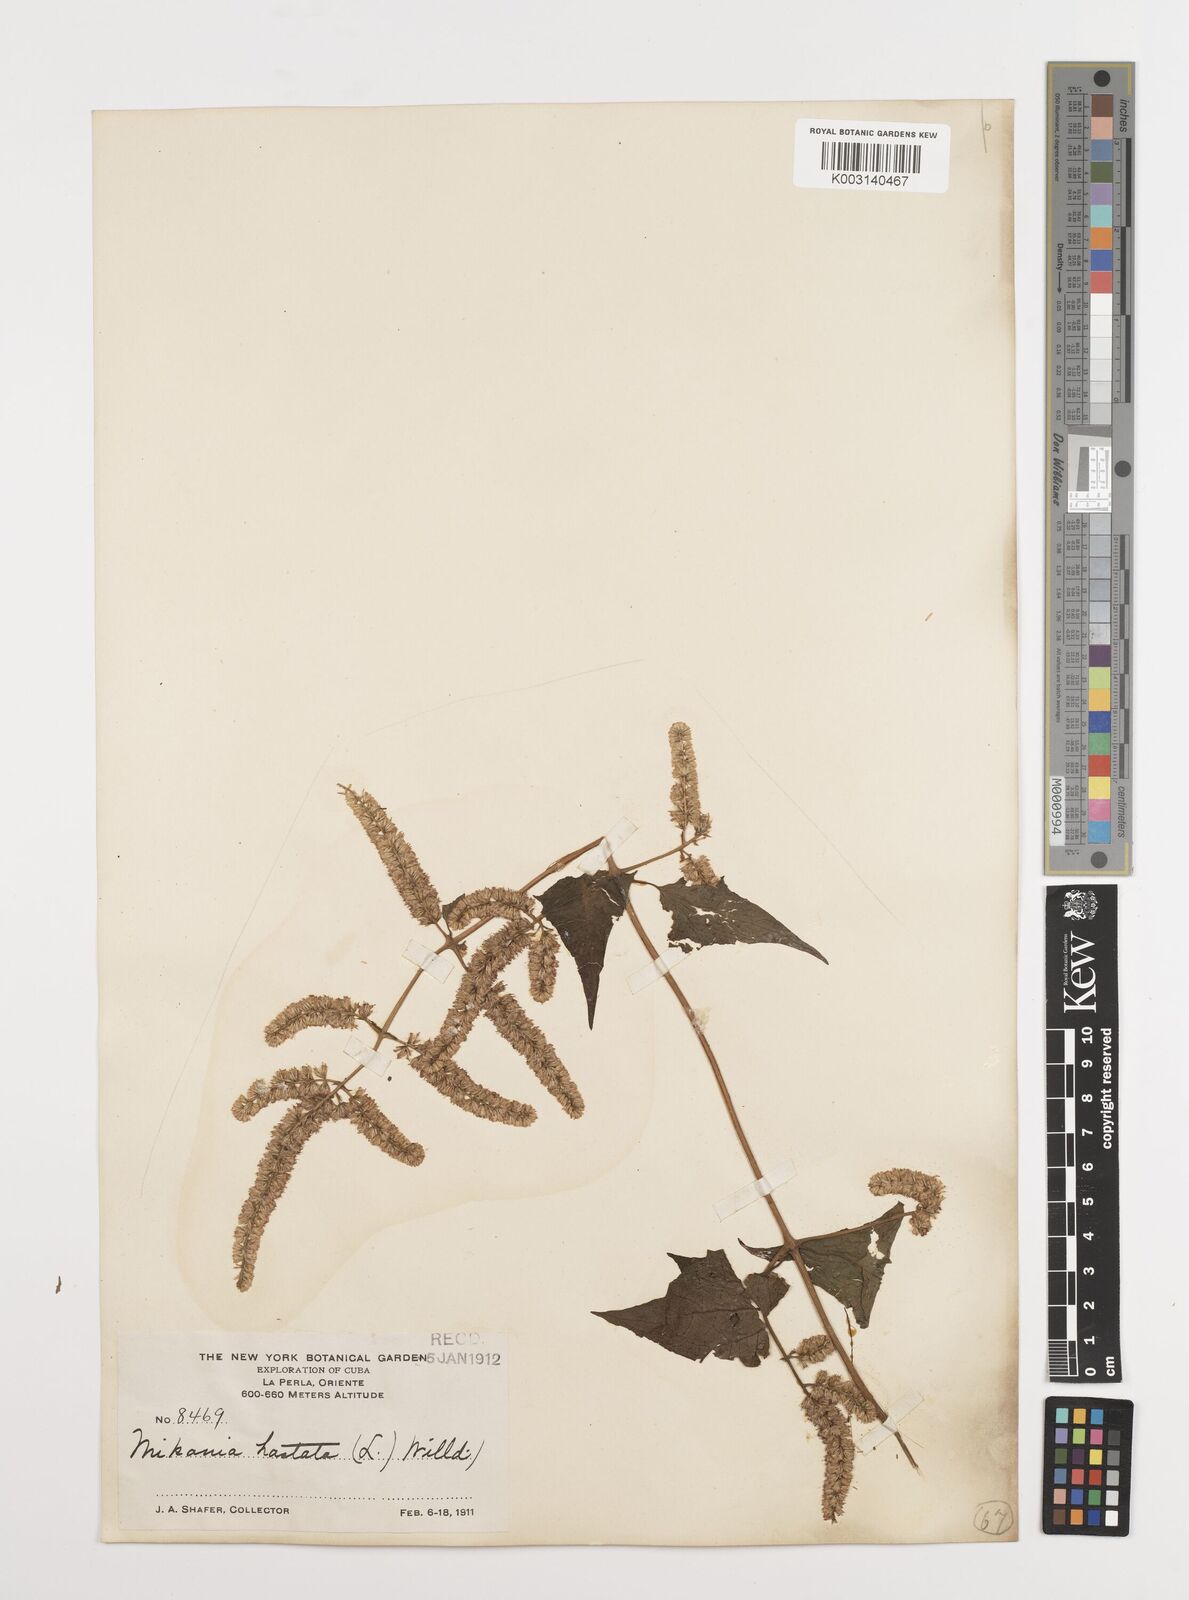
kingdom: Plantae
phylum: Tracheophyta
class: Magnoliopsida
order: Asterales
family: Asteraceae
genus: Mikania
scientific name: Mikania hastata
